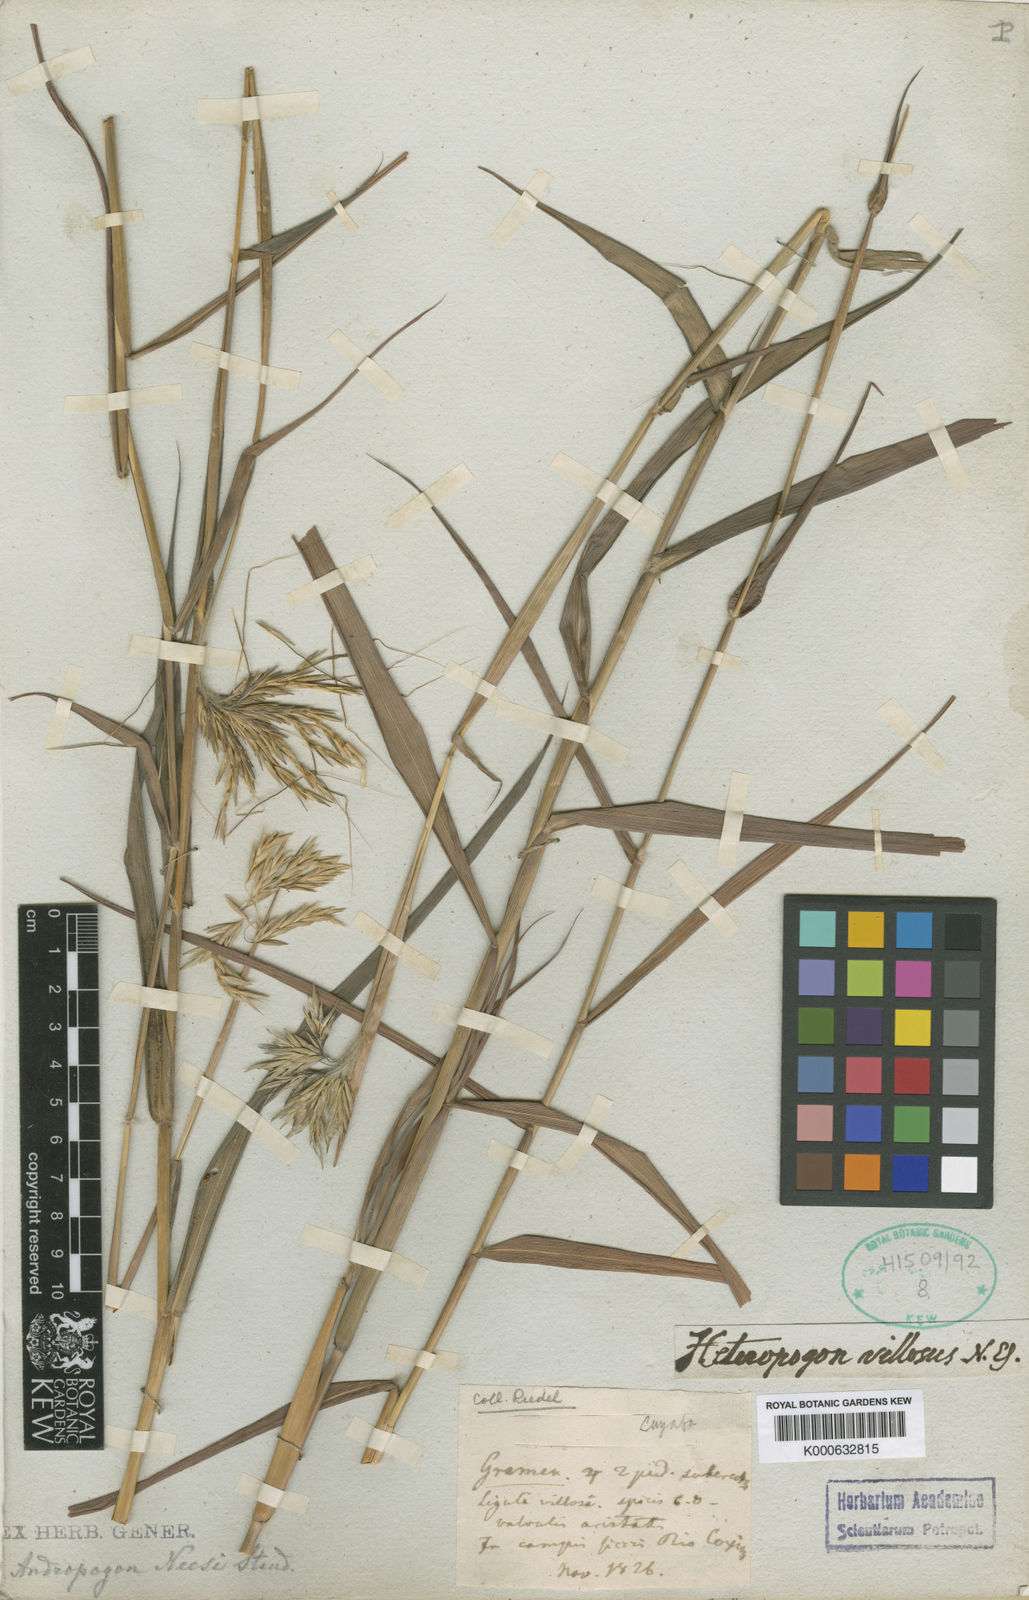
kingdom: Plantae
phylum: Tracheophyta
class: Liliopsida
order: Poales
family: Poaceae
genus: Agenium
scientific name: Agenium villosum
